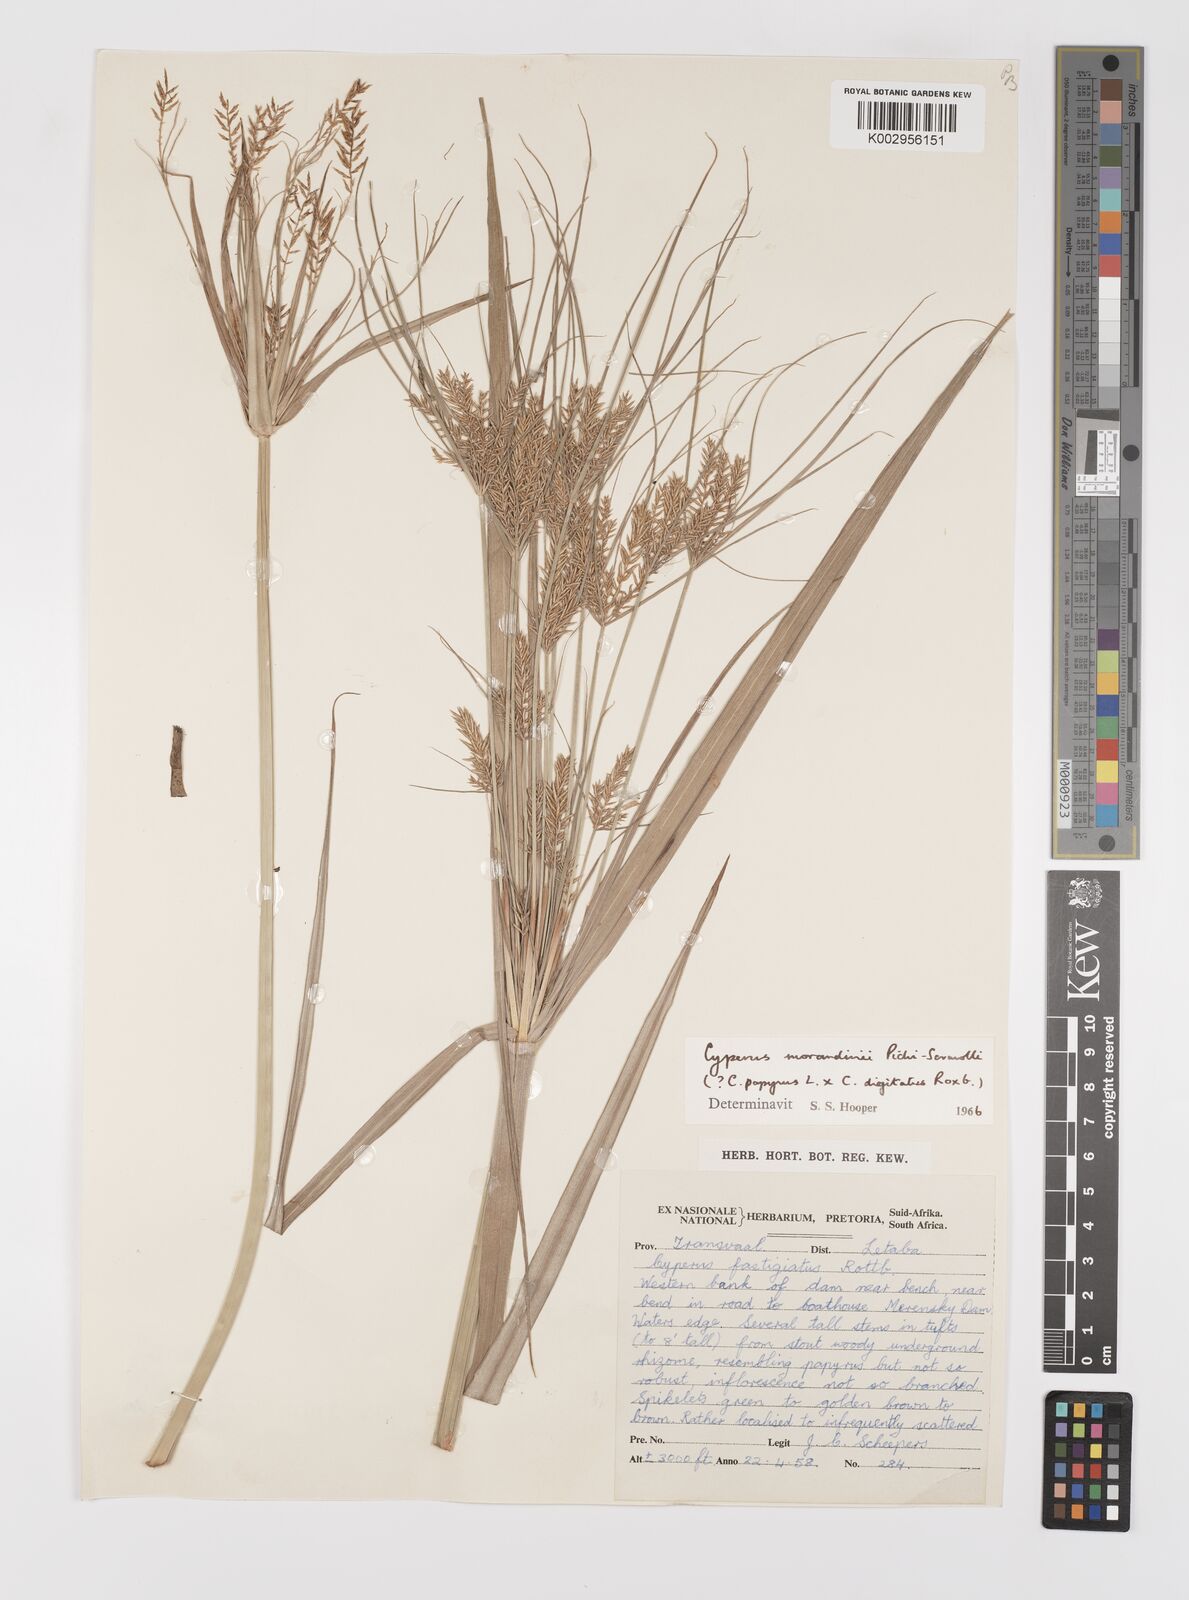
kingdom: Plantae
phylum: Tracheophyta
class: Liliopsida
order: Poales
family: Cyperaceae
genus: Cyperus
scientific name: Cyperus elephantinus
